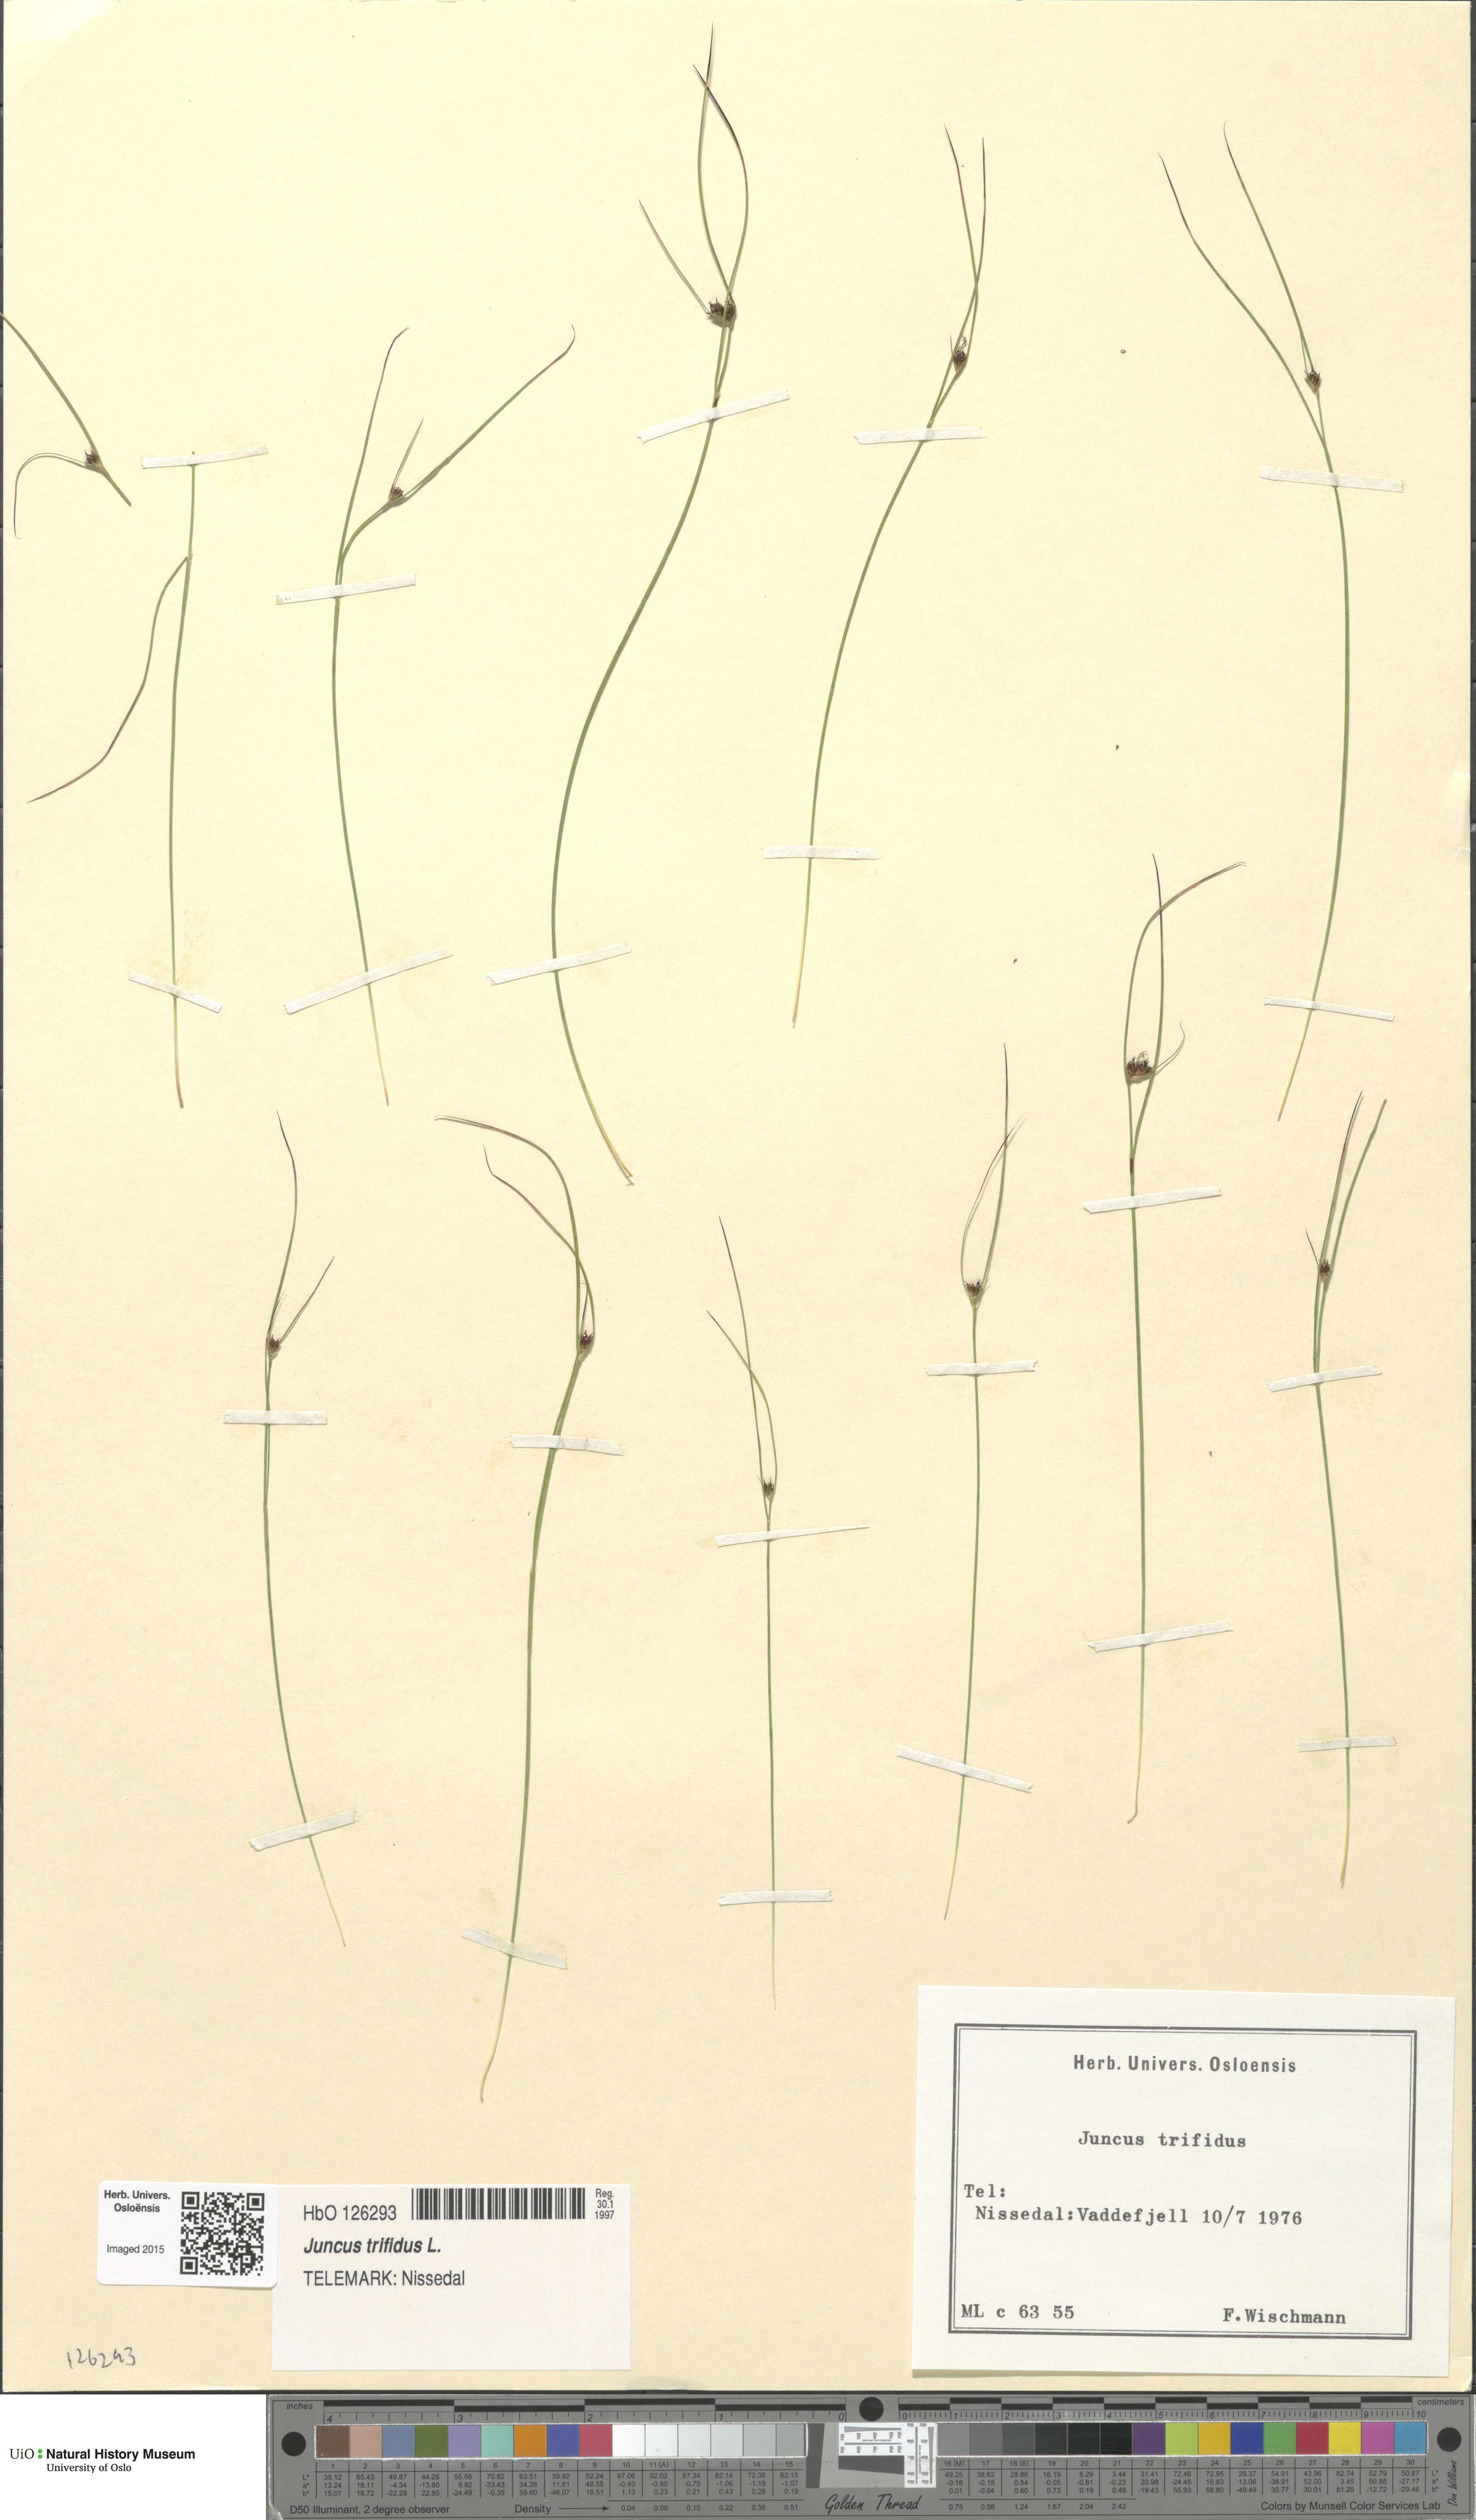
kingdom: Plantae
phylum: Tracheophyta
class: Liliopsida
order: Poales
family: Juncaceae
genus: Oreojuncus
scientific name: Oreojuncus trifidus
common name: Highland rush
